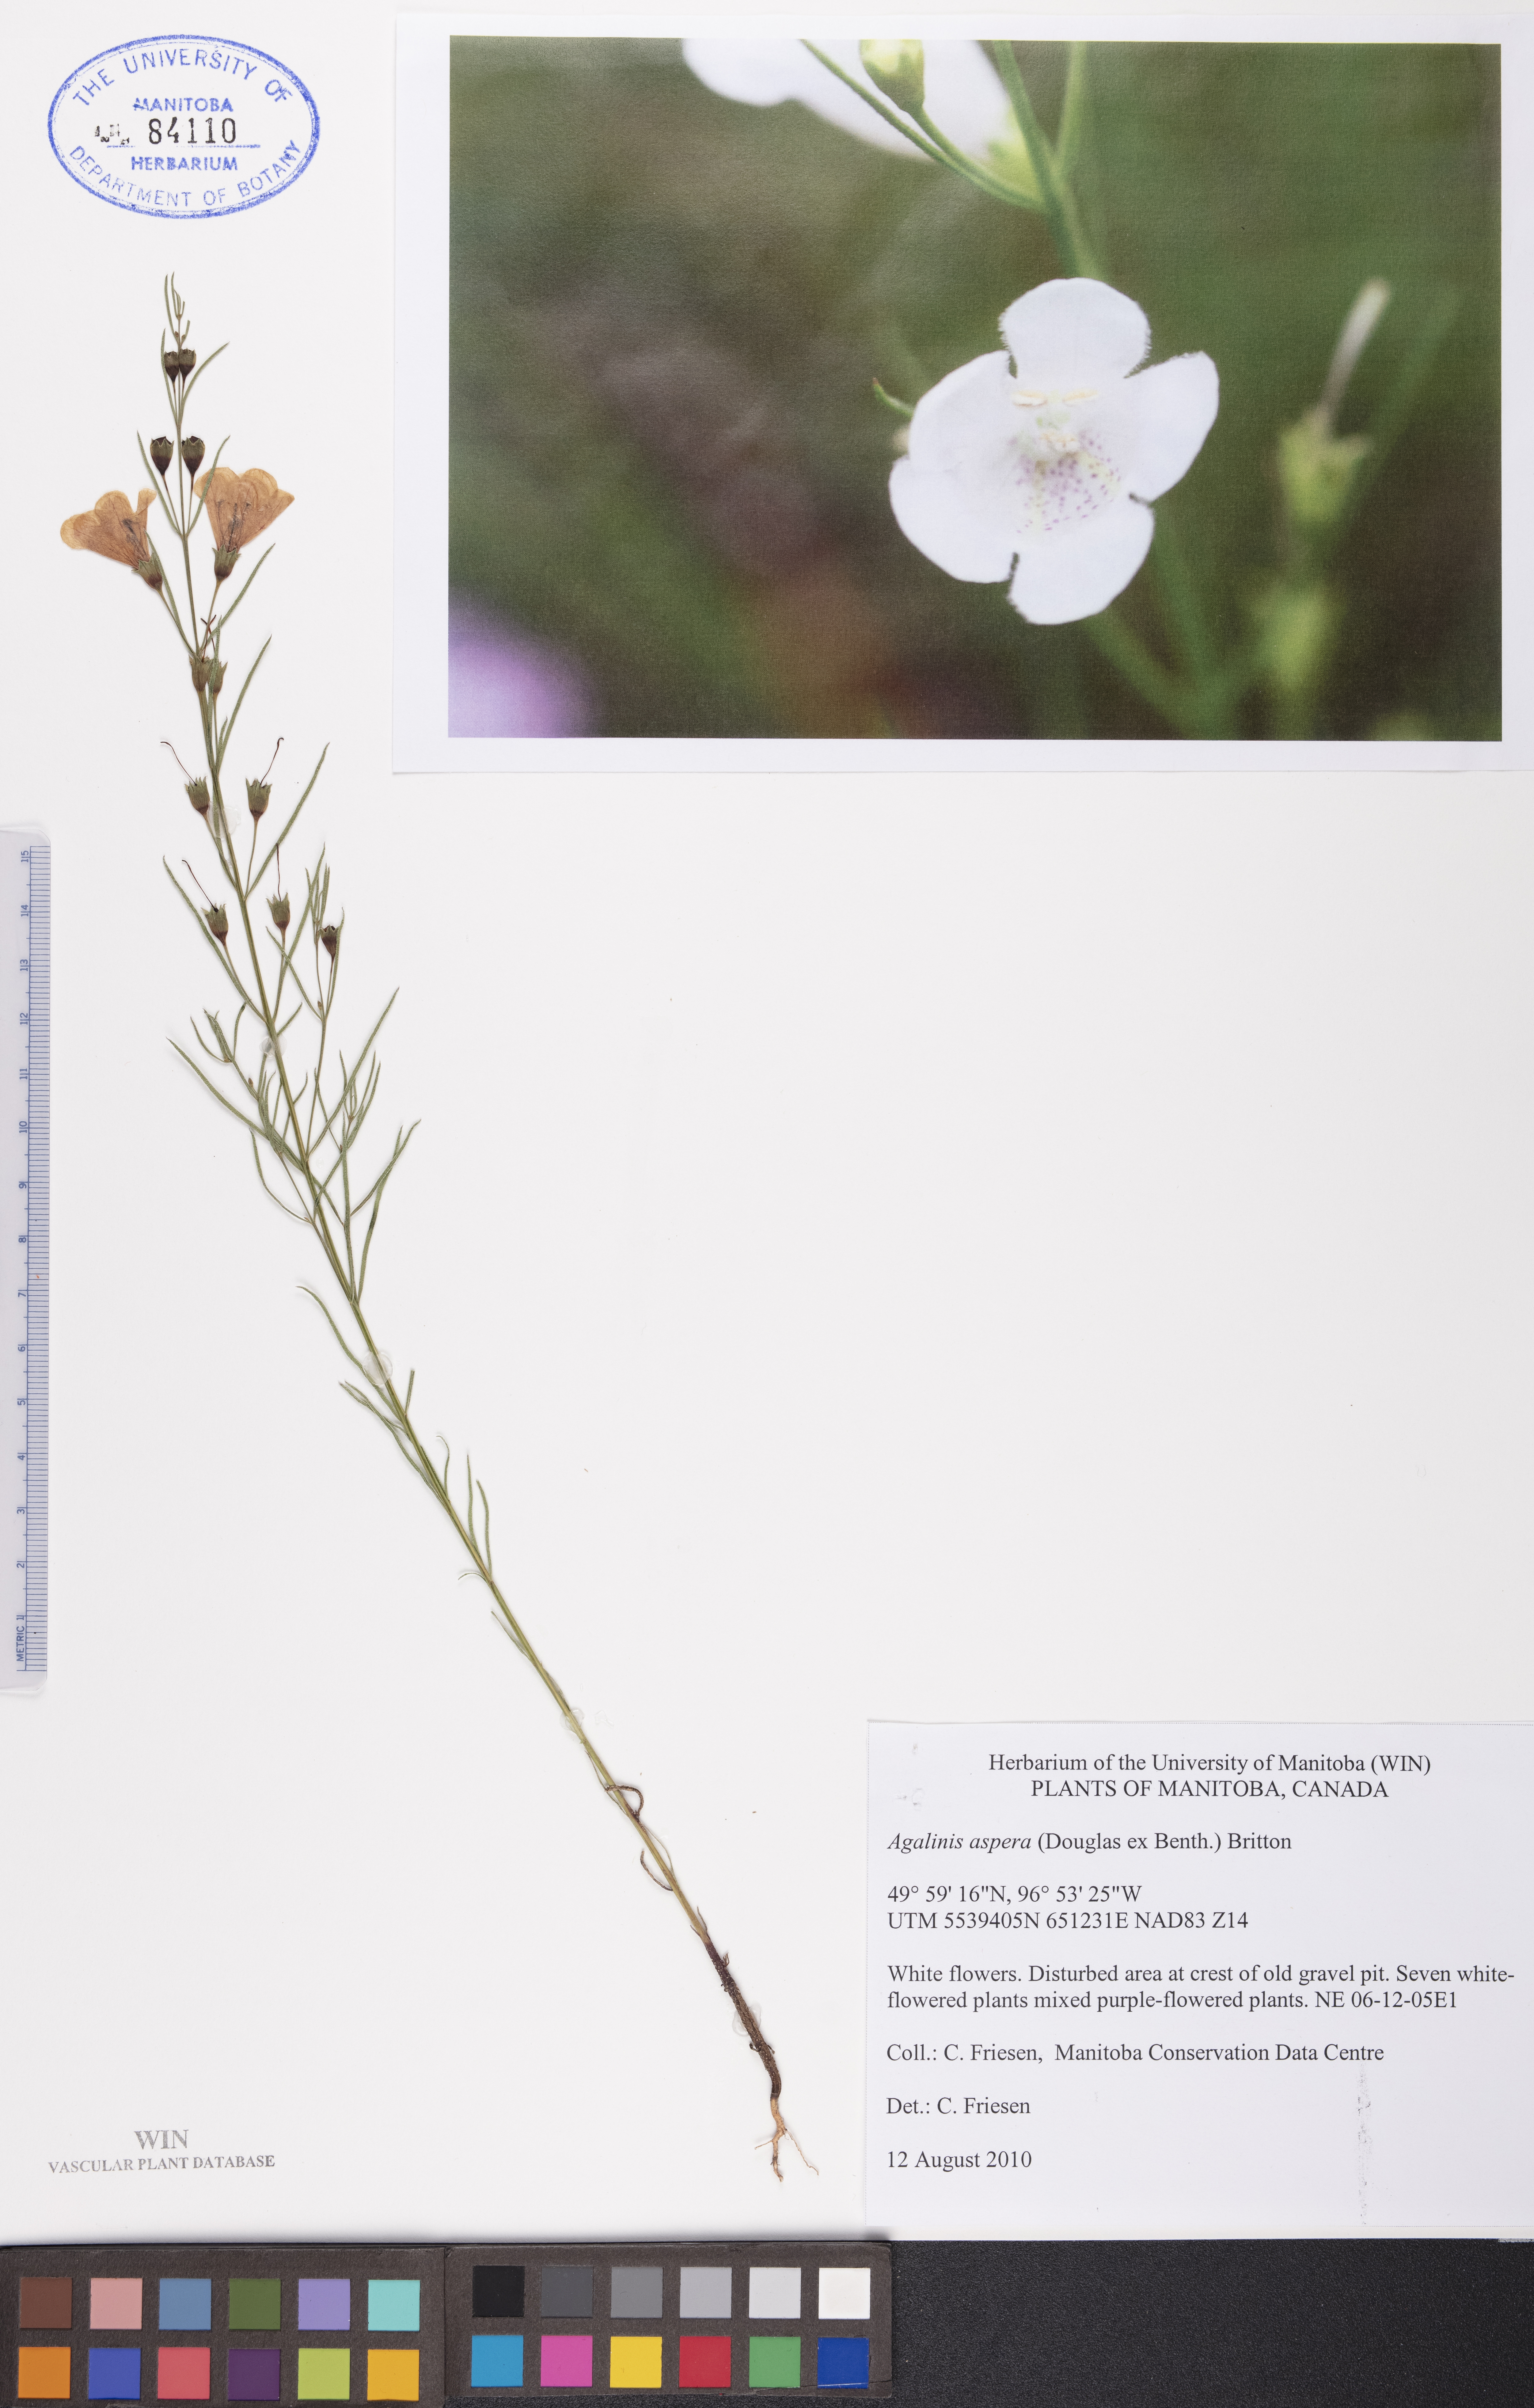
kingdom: Plantae
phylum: Tracheophyta
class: Magnoliopsida
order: Lamiales
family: Orobanchaceae
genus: Agalinis
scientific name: Agalinis aspera
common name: Rough agalinis
